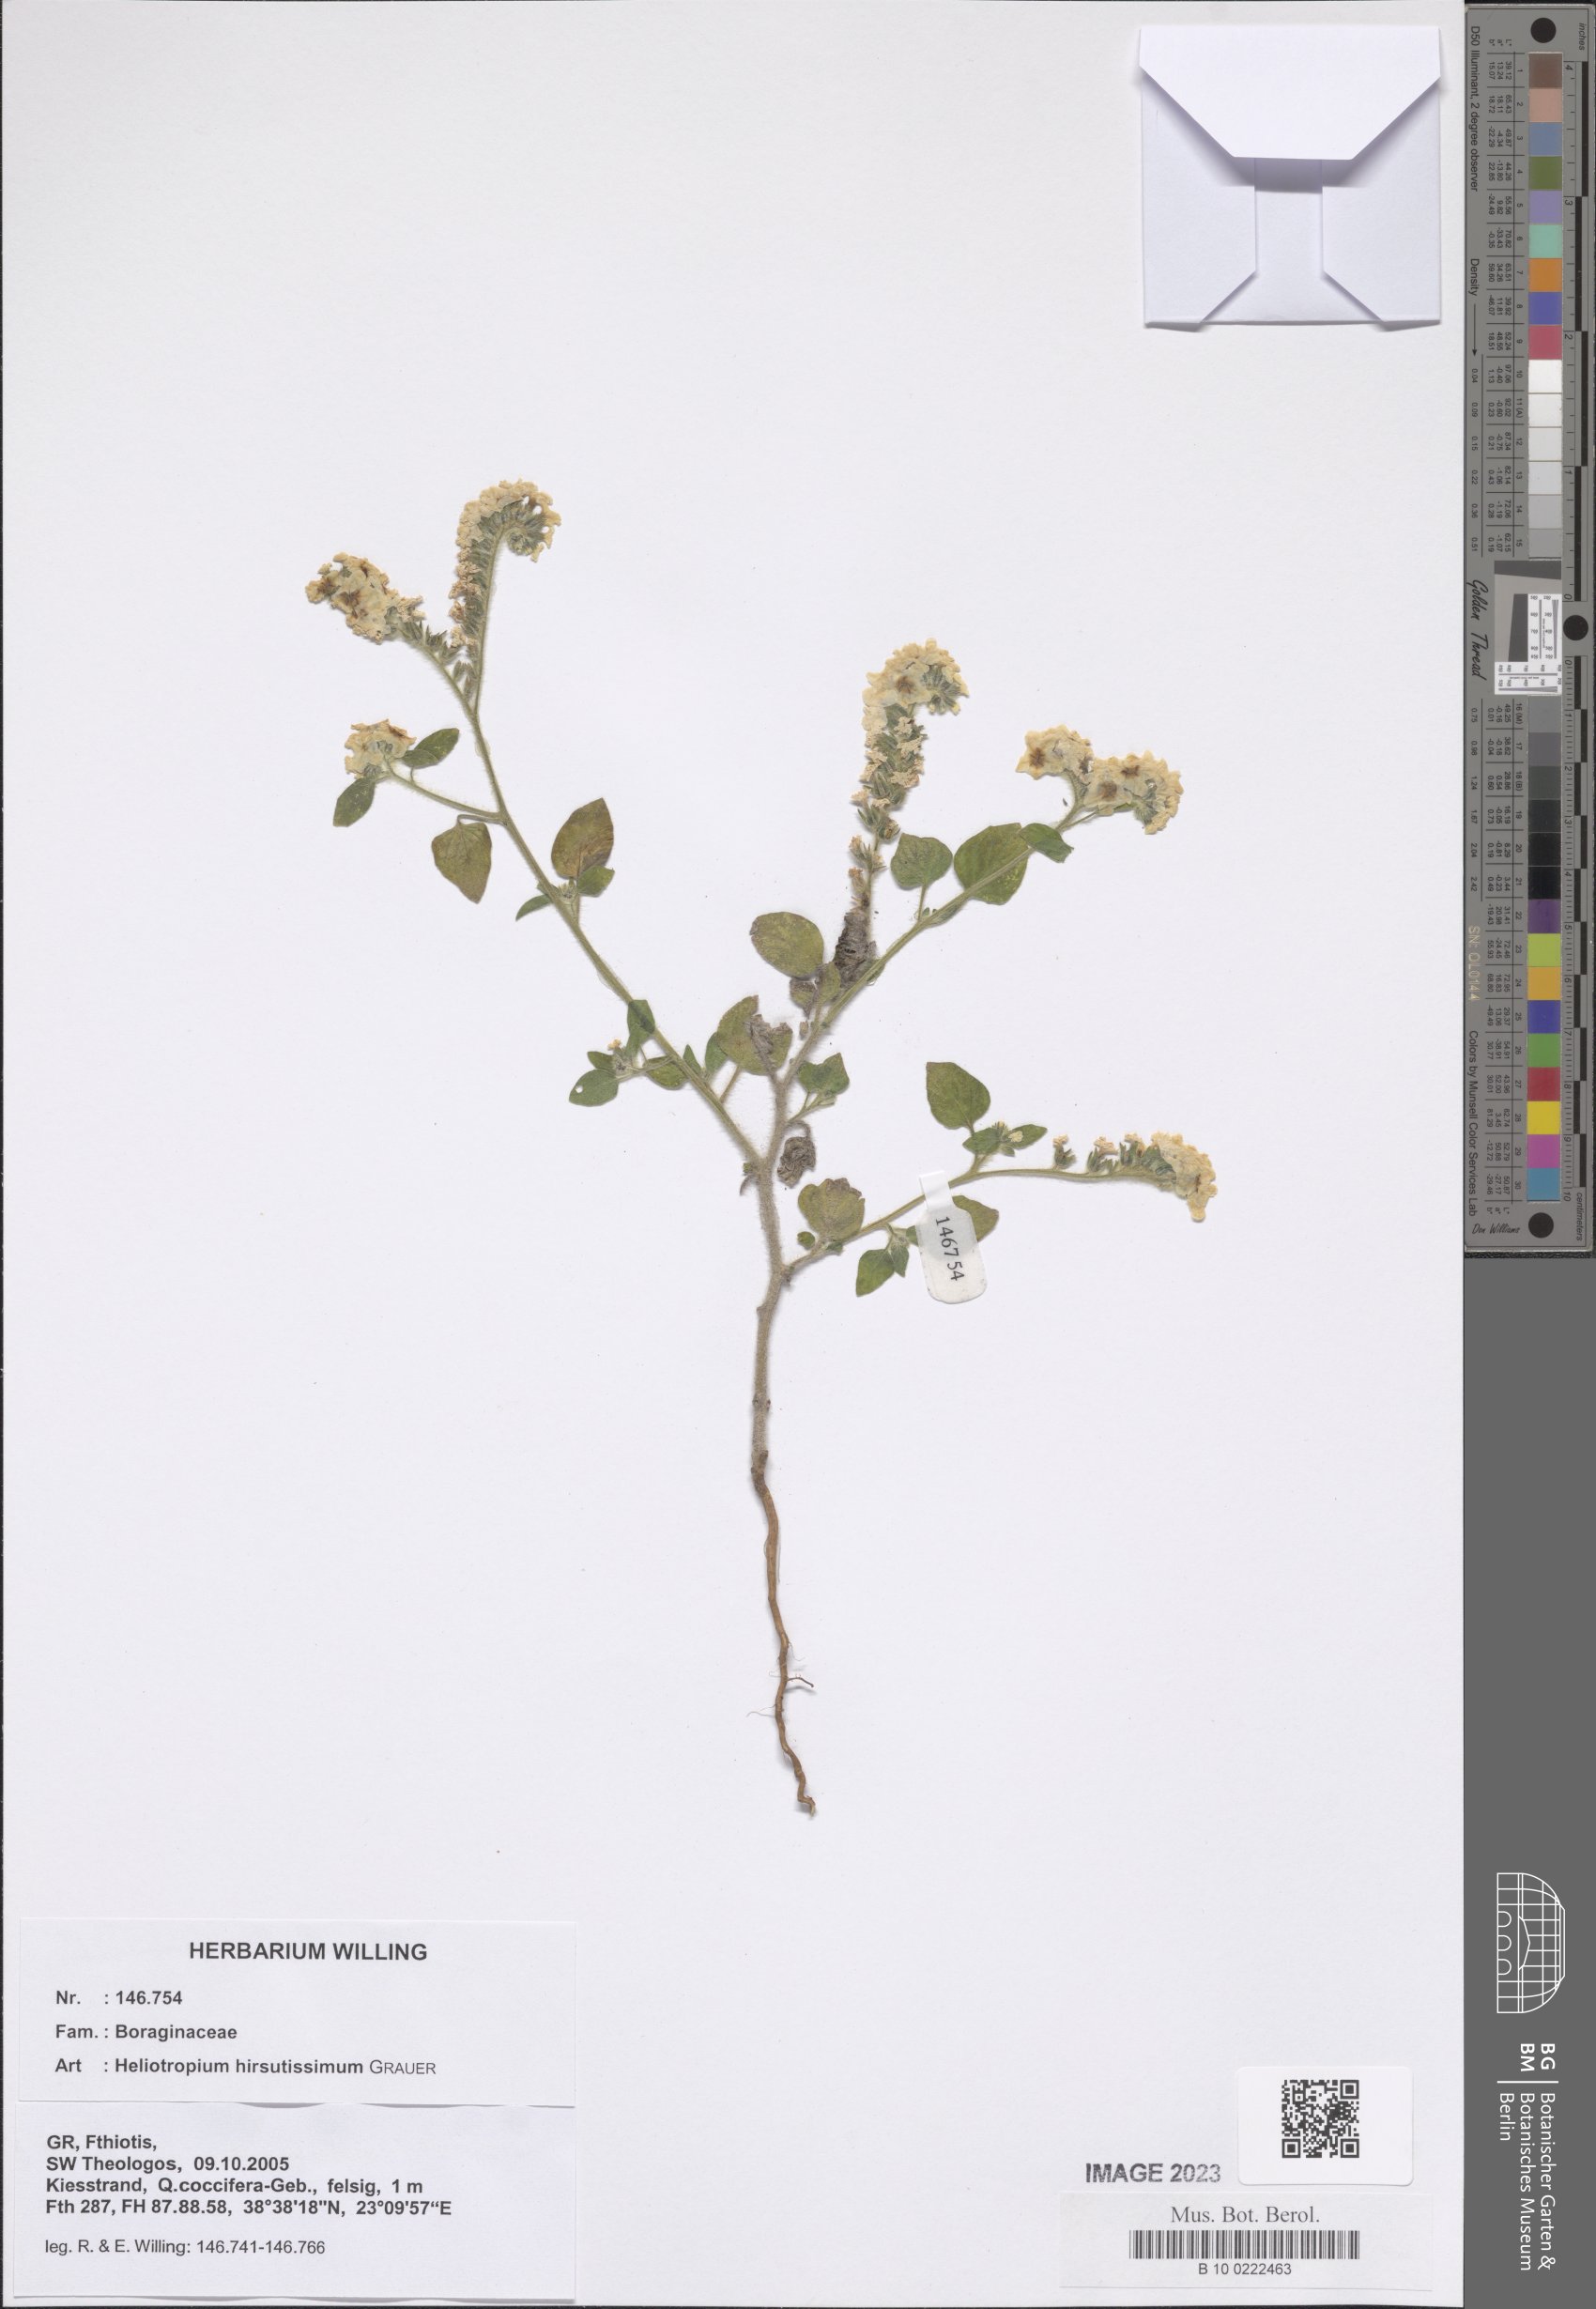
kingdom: Plantae
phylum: Tracheophyta
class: Magnoliopsida
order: Boraginales
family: Heliotropiaceae
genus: Heliotropium
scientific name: Heliotropium hirsutissimum
